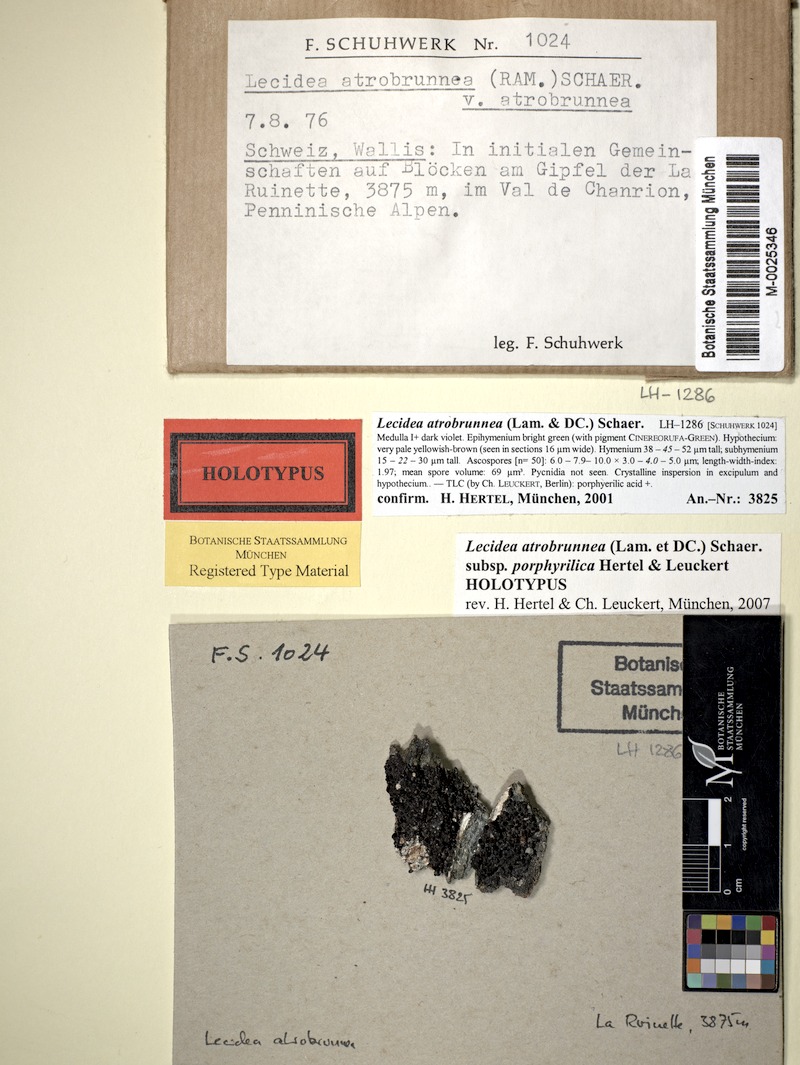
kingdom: Fungi
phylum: Ascomycota
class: Lecanoromycetes
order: Lecideales
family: Lecideaceae
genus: Lecidea
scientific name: Lecidea atrobrunnea
